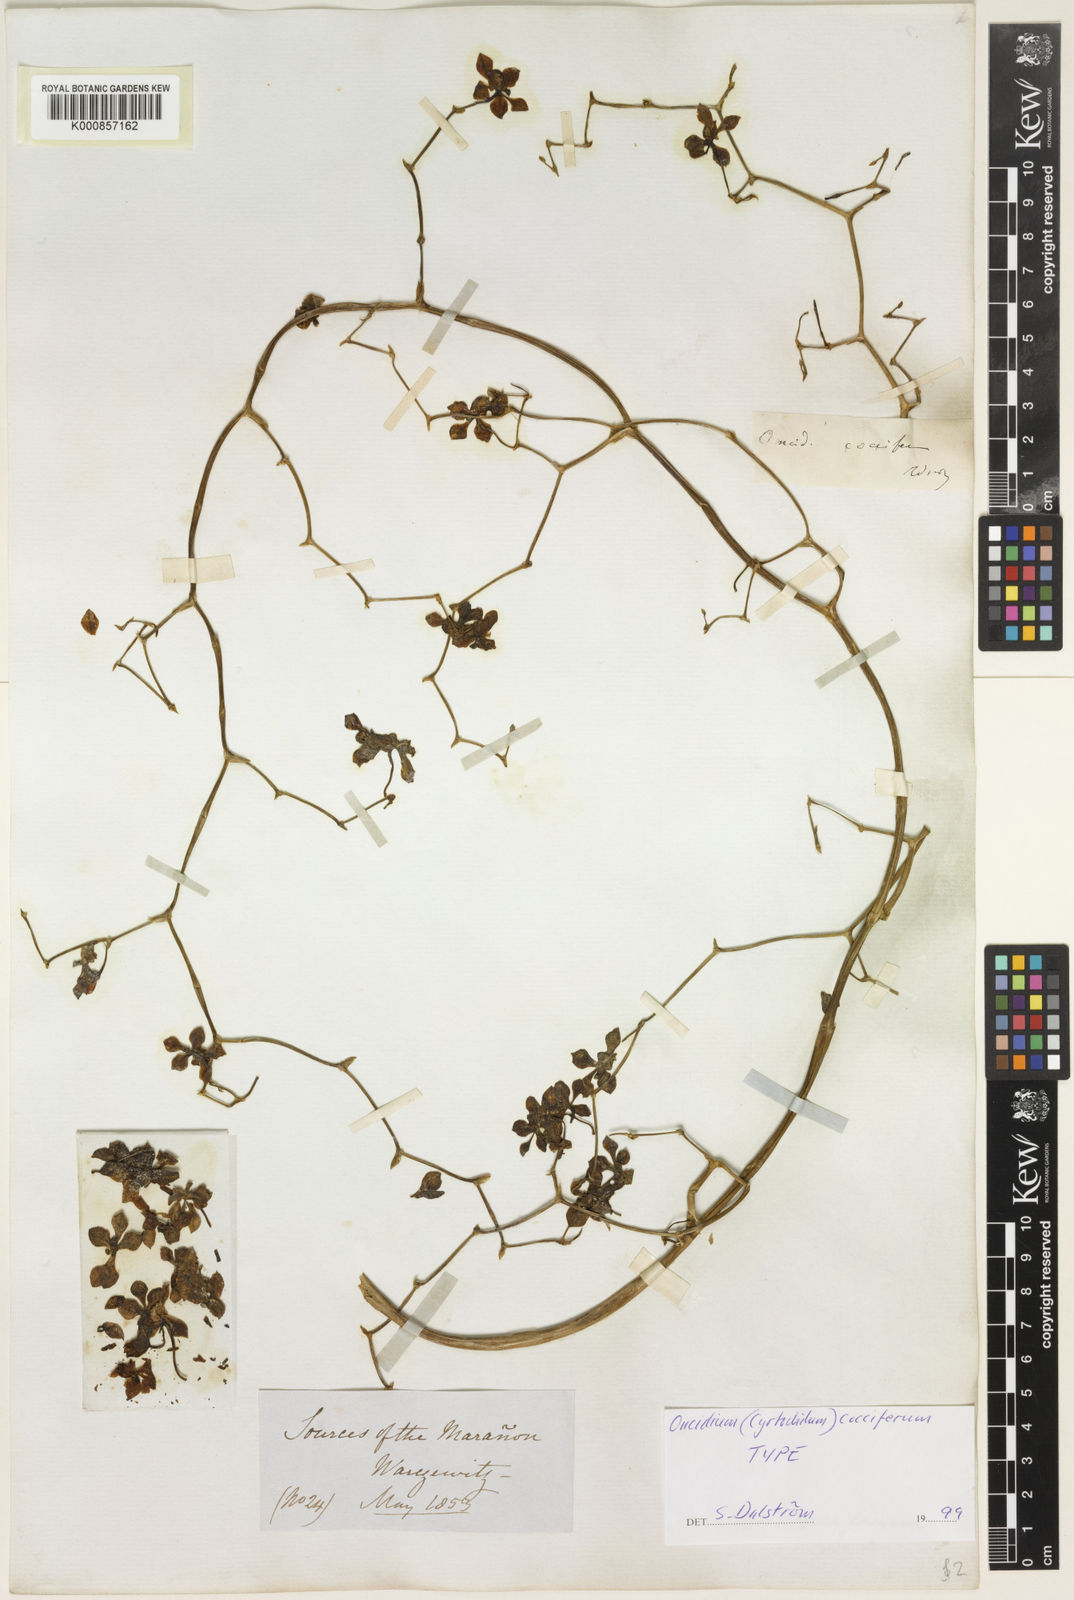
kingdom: Plantae
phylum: Tracheophyta
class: Liliopsida
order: Asparagales
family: Orchidaceae
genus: Cyrtochilum
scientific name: Cyrtochilum flexuosum
